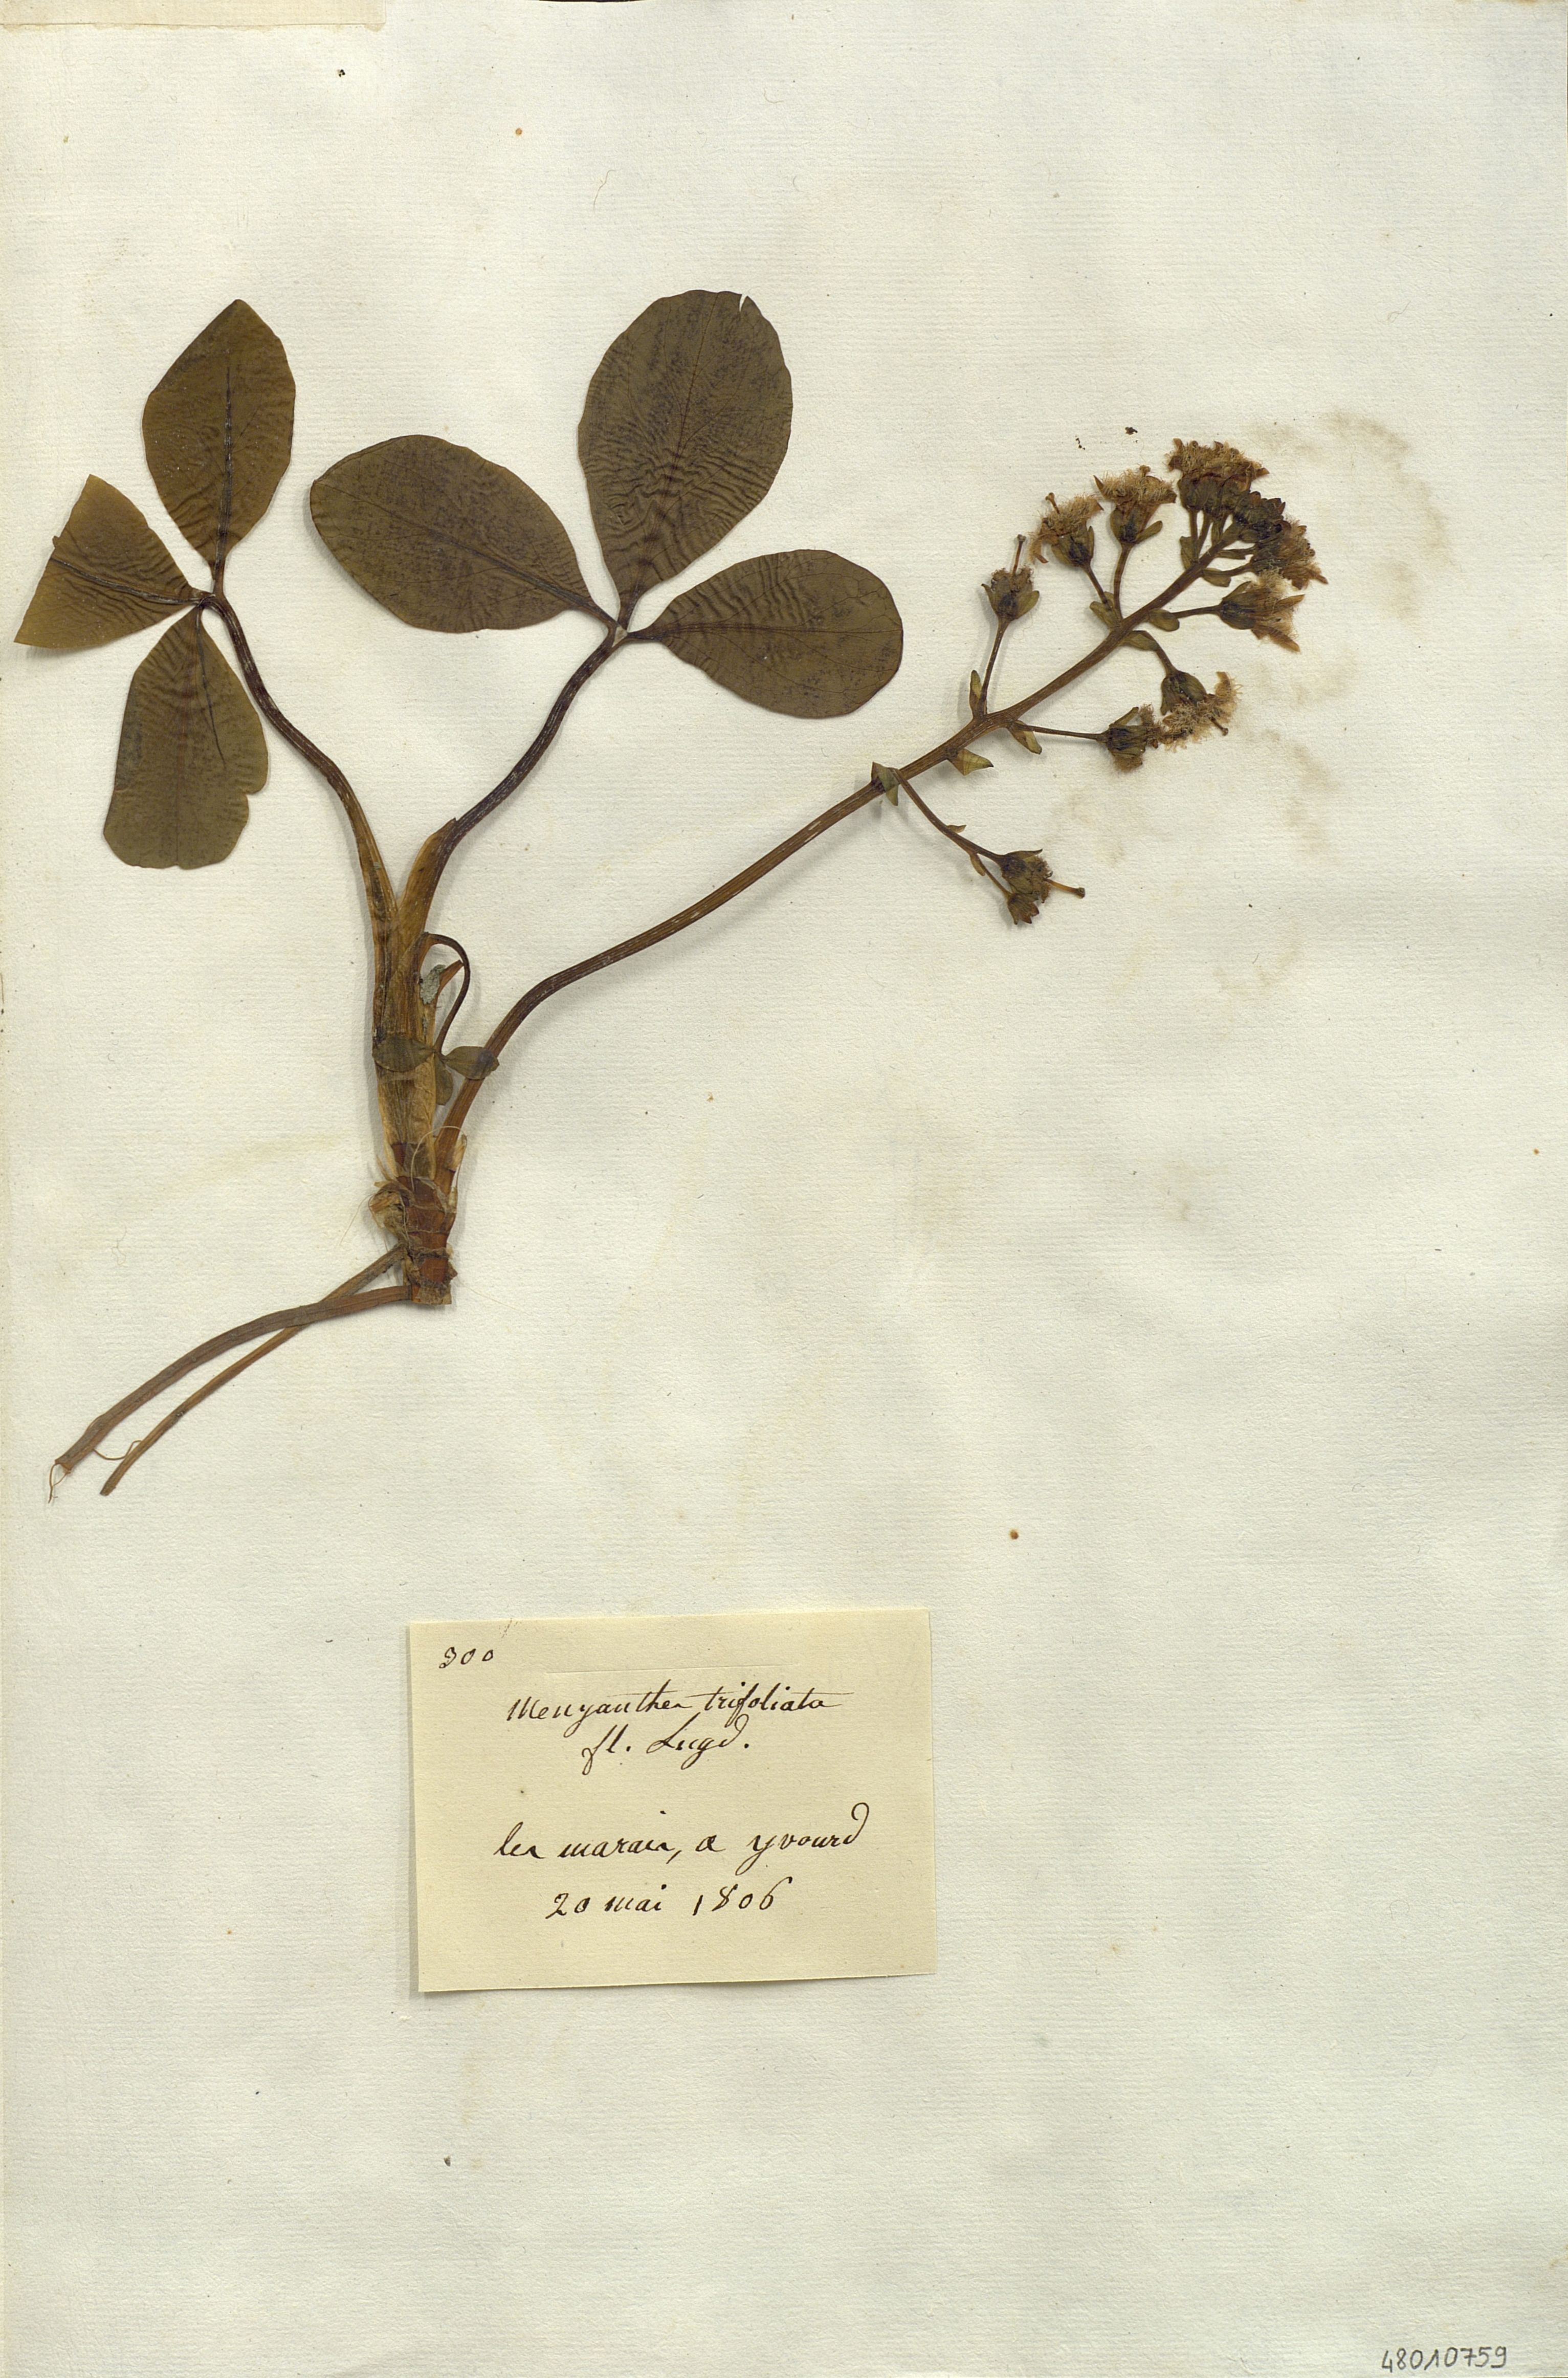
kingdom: Plantae
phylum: Tracheophyta
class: Magnoliopsida
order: Asterales
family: Menyanthaceae
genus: Menyanthes
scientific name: Menyanthes trifoliata
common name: Bogbean
